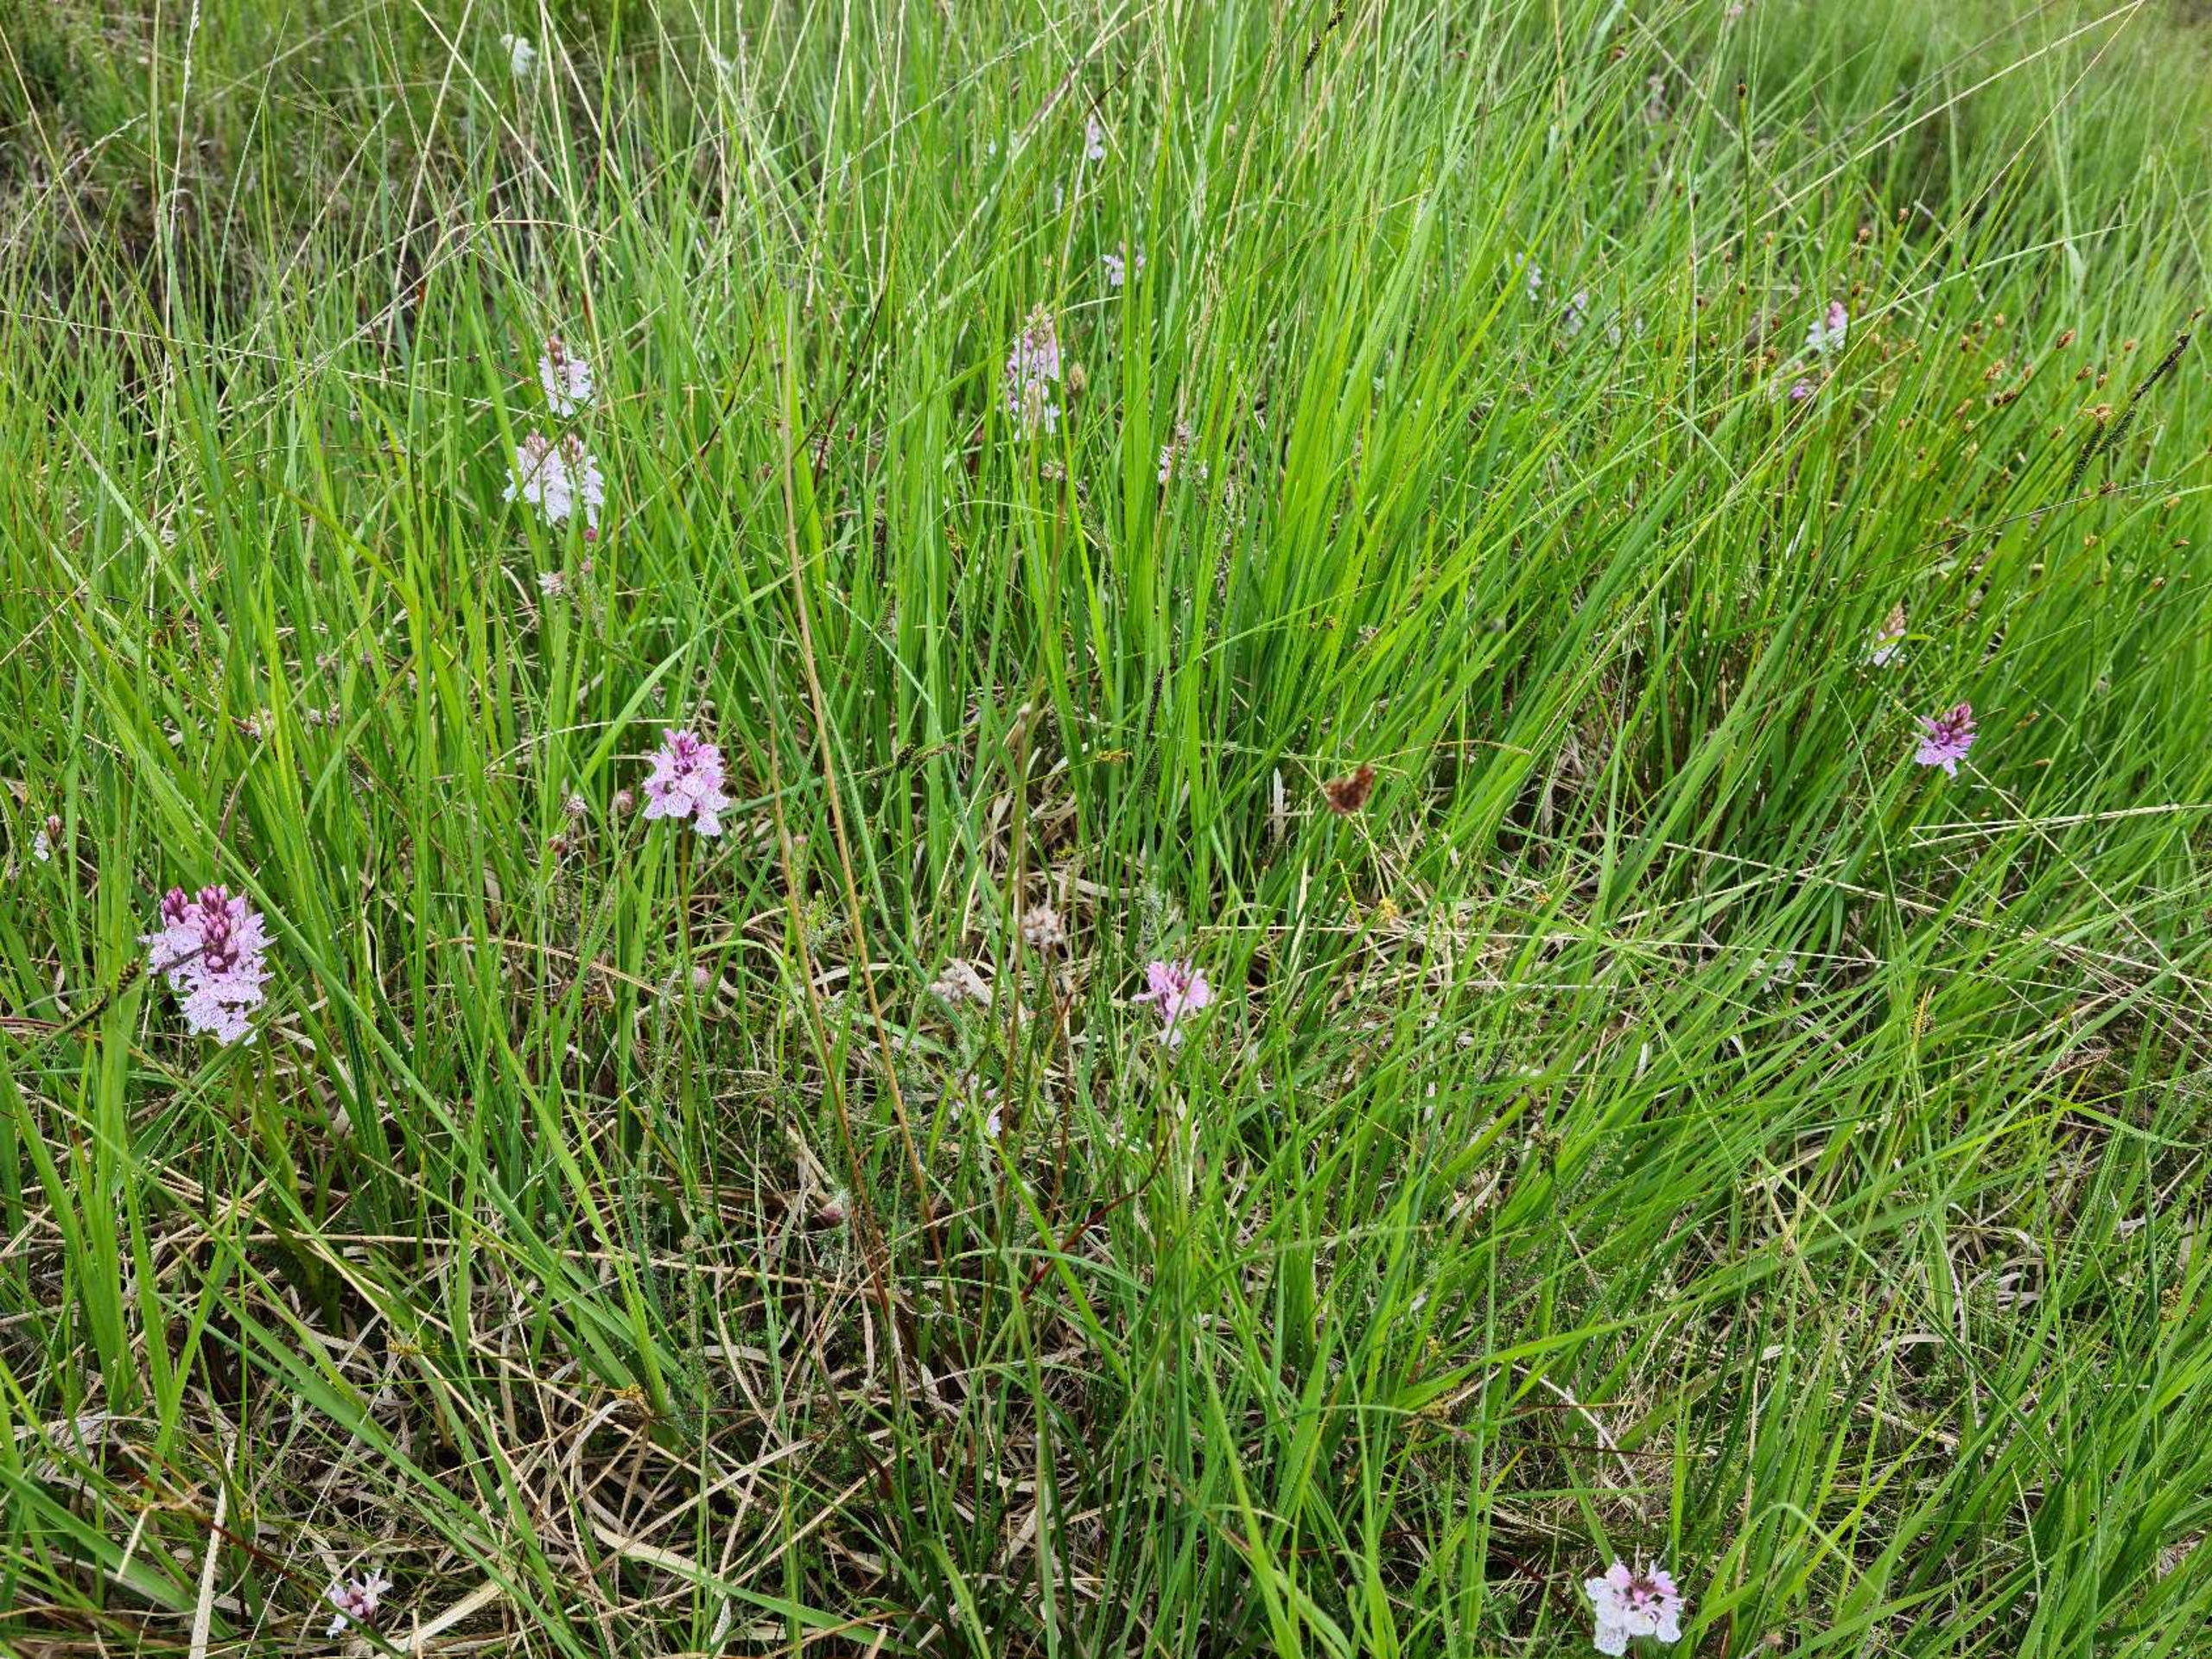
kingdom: Plantae
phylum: Tracheophyta
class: Liliopsida
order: Asparagales
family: Orchidaceae
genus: Dactylorhiza
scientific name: Dactylorhiza maculata
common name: Plettet gøgeurt
